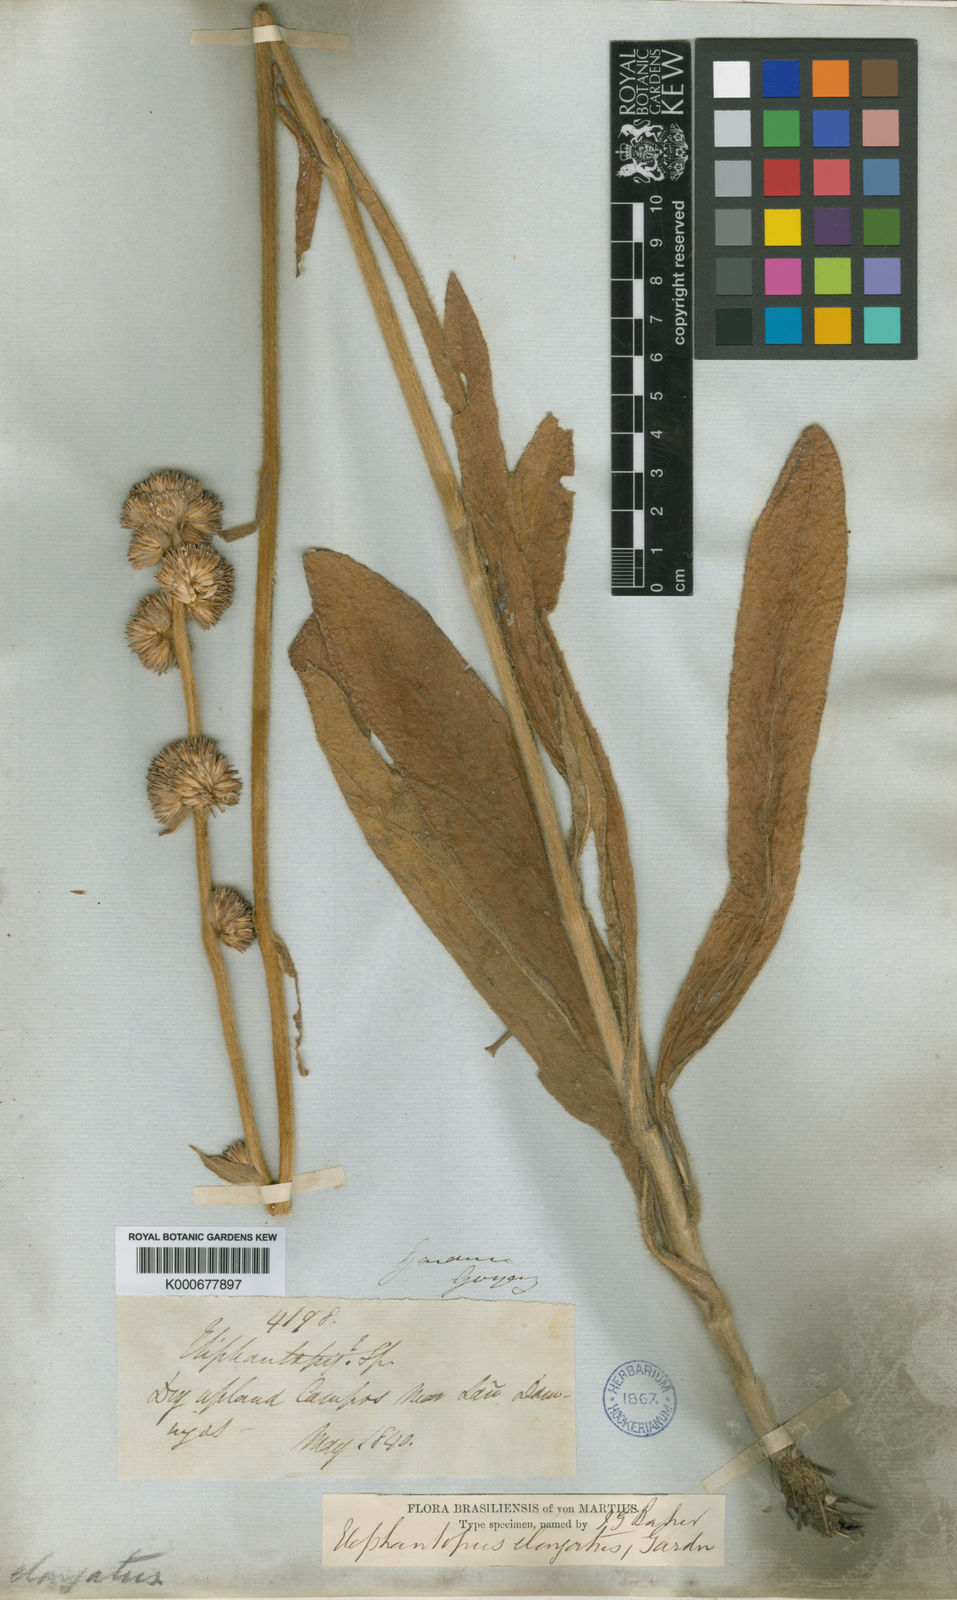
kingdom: Plantae
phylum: Tracheophyta
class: Magnoliopsida
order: Asterales
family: Asteraceae
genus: Elephantopus
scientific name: Elephantopus elongatus
